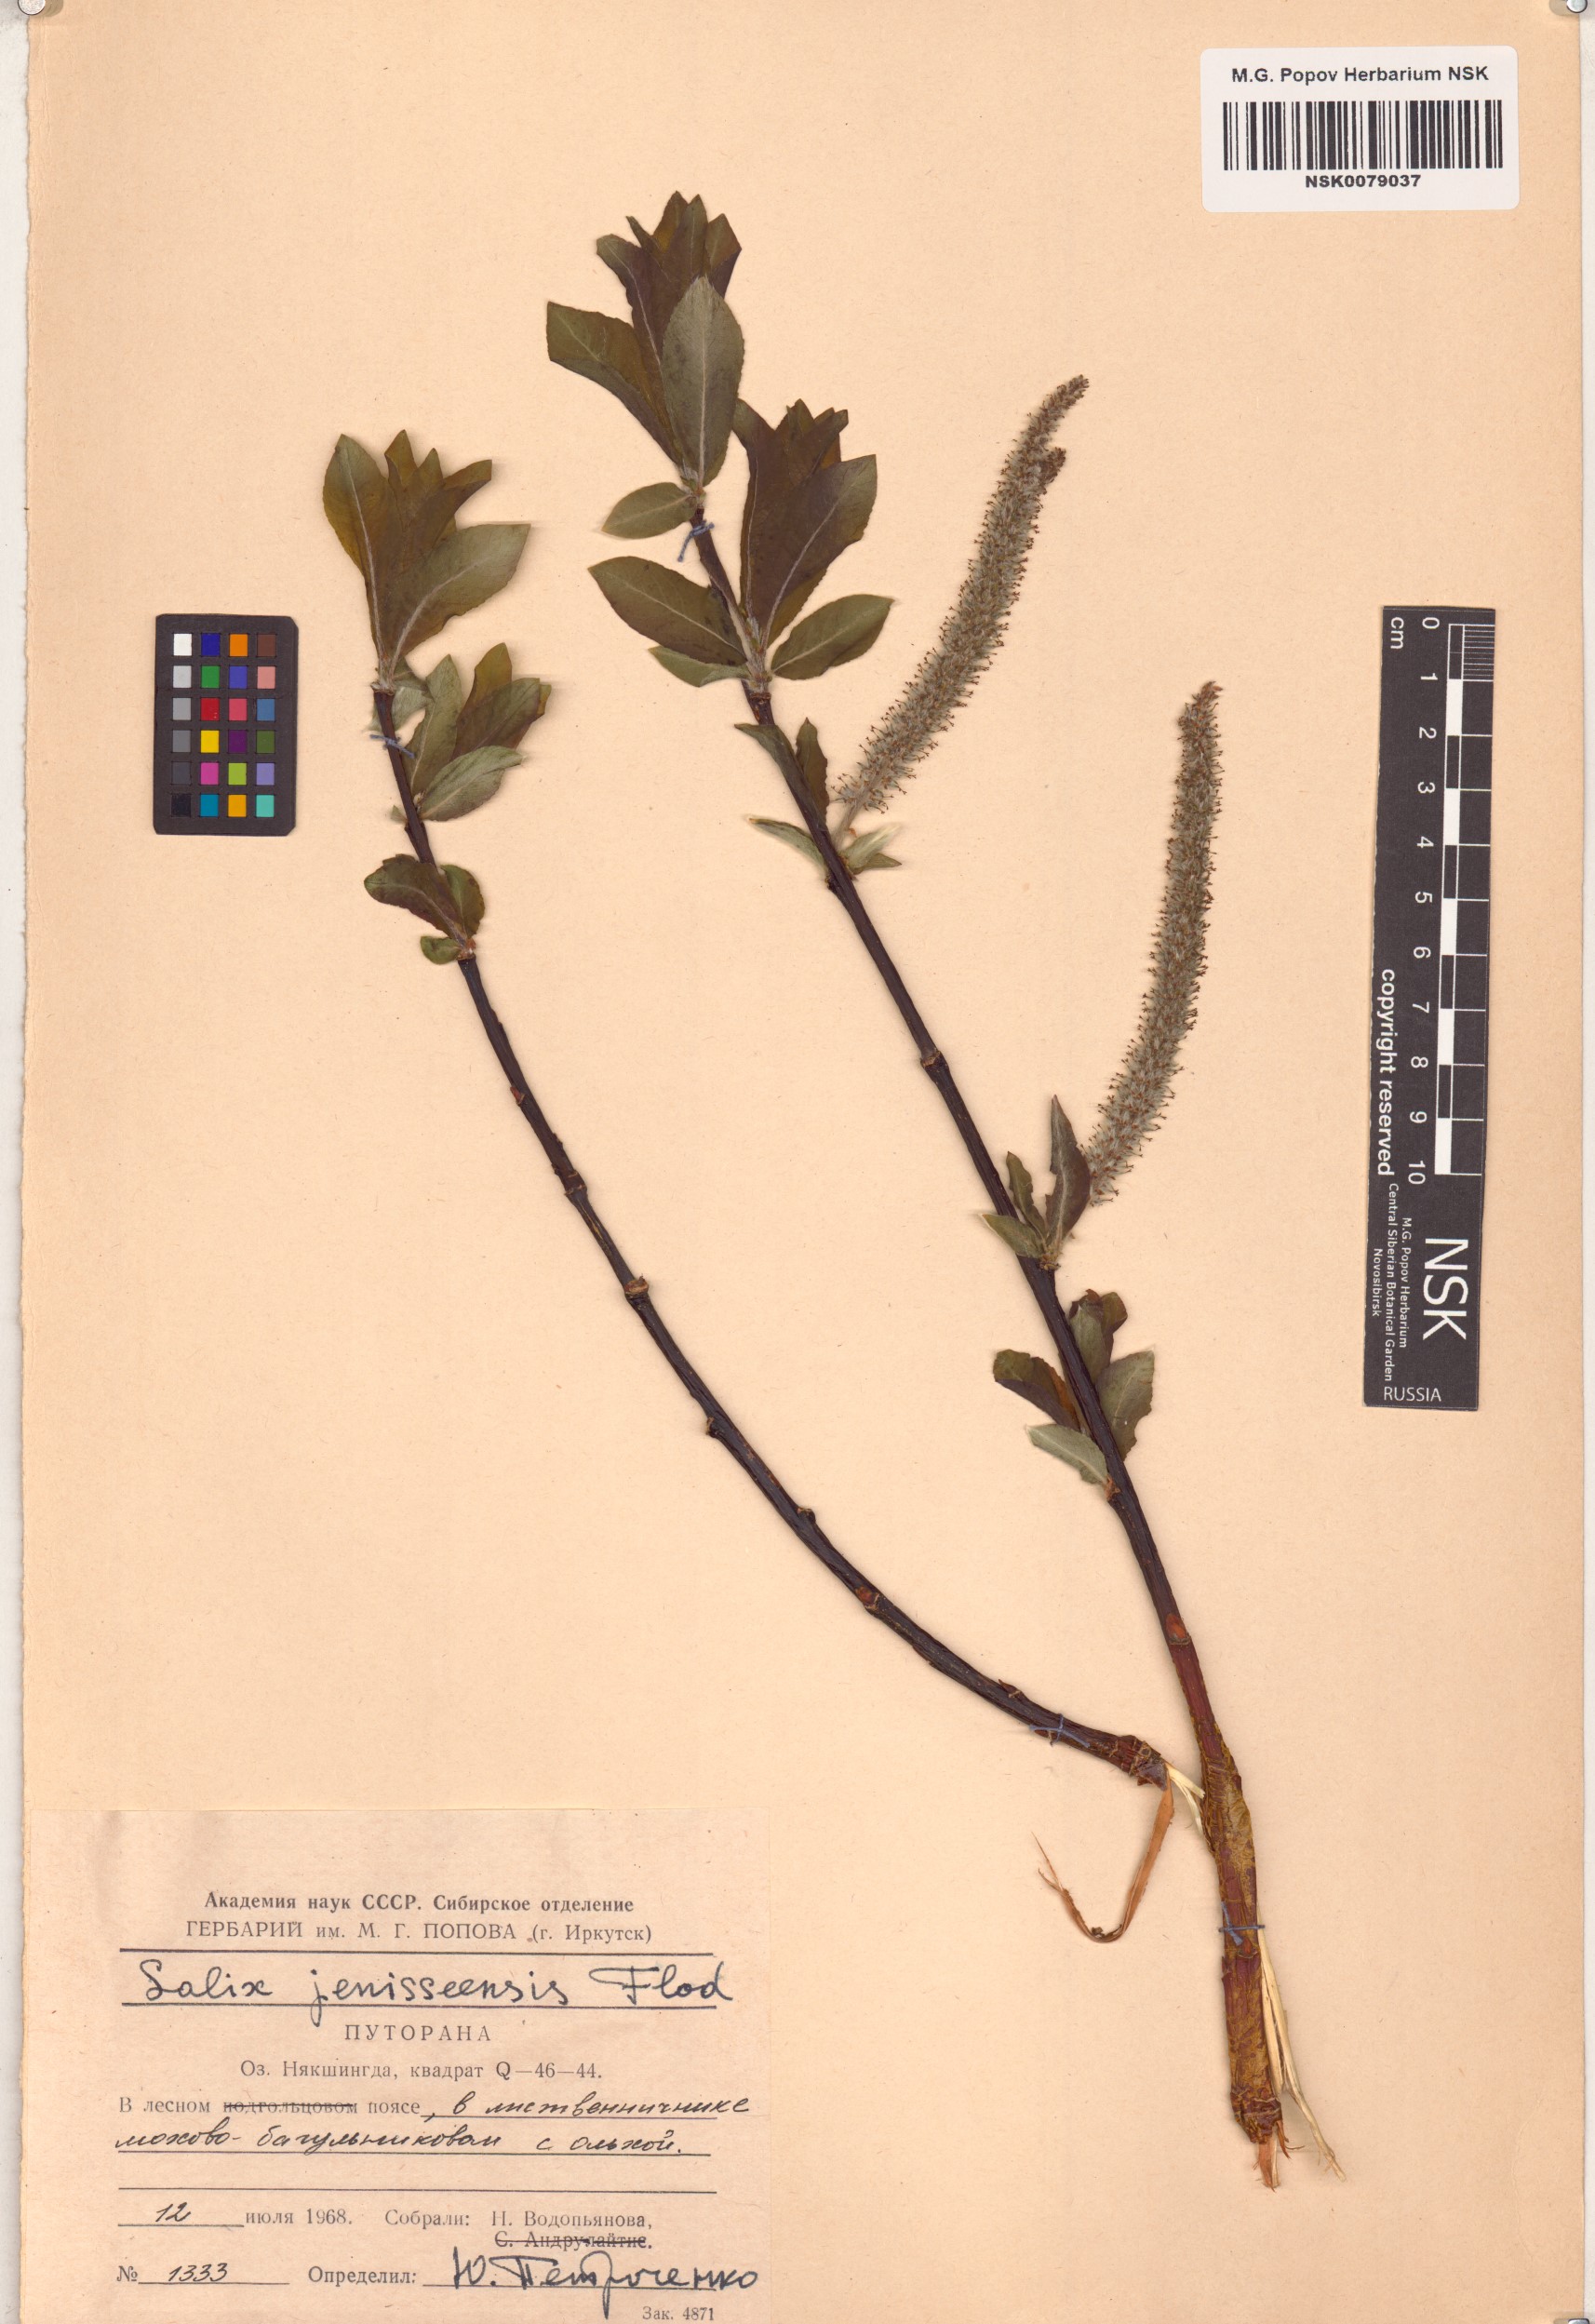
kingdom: Plantae
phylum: Tracheophyta
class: Magnoliopsida
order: Malpighiales
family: Salicaceae
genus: Salix
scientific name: Salix jenisseensis
